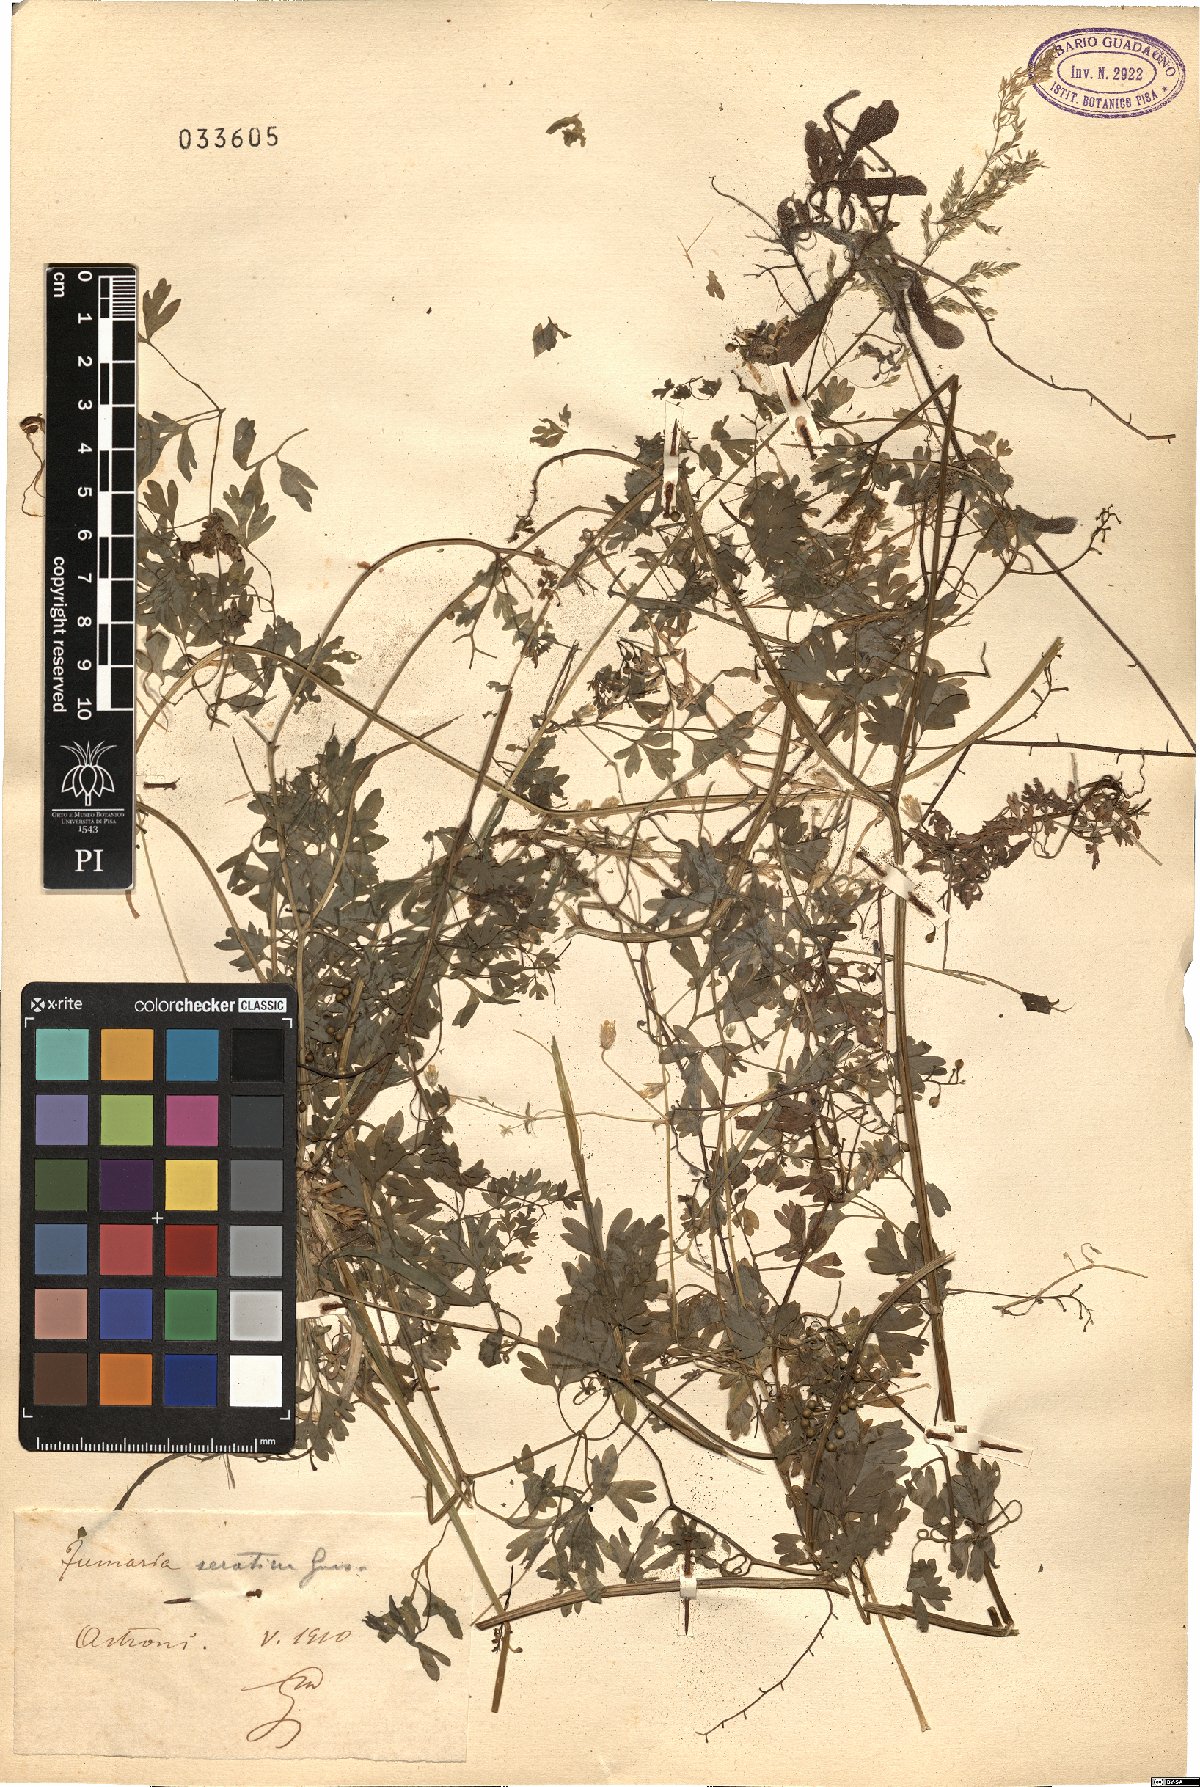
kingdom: Plantae
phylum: Tracheophyta
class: Magnoliopsida
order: Ranunculales
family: Papaveraceae
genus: Fumaria
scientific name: Fumaria bastardii
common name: Tall ramping-fumitory
